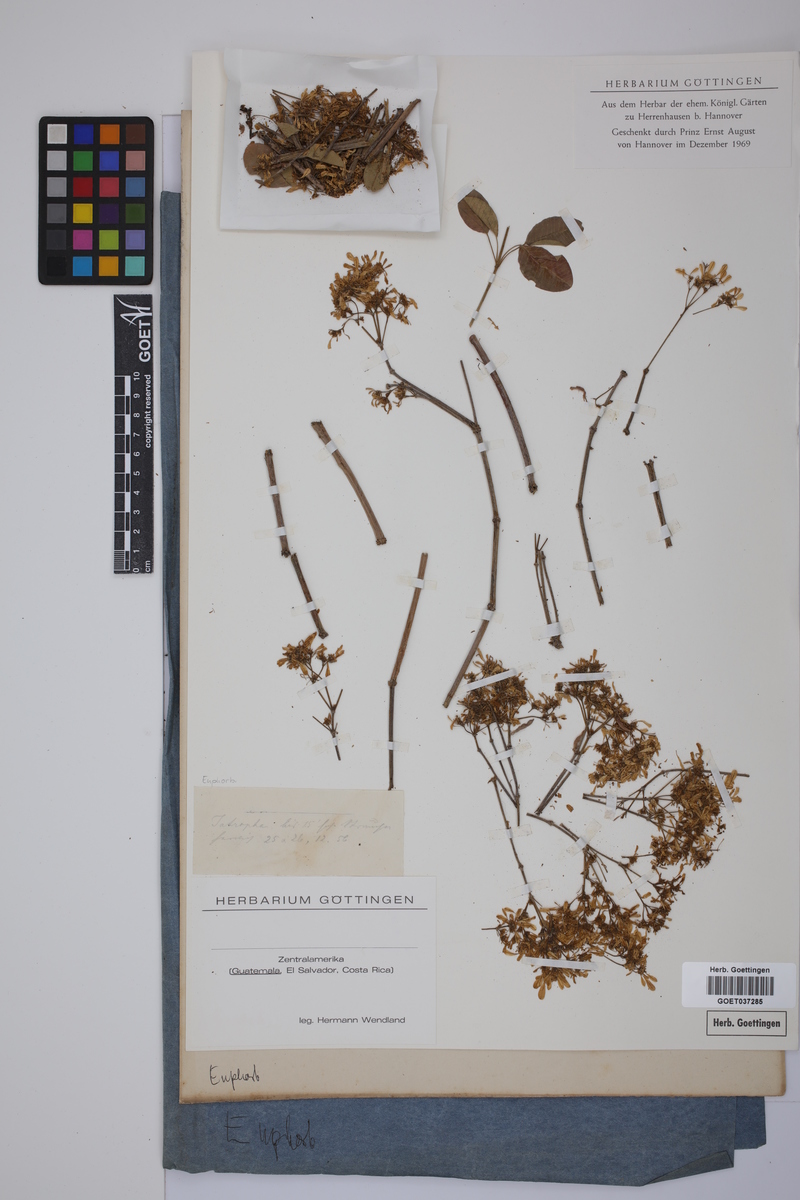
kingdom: Plantae
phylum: Tracheophyta
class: Magnoliopsida
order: Malpighiales
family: Euphorbiaceae
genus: Jatropha
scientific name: Jatropha
